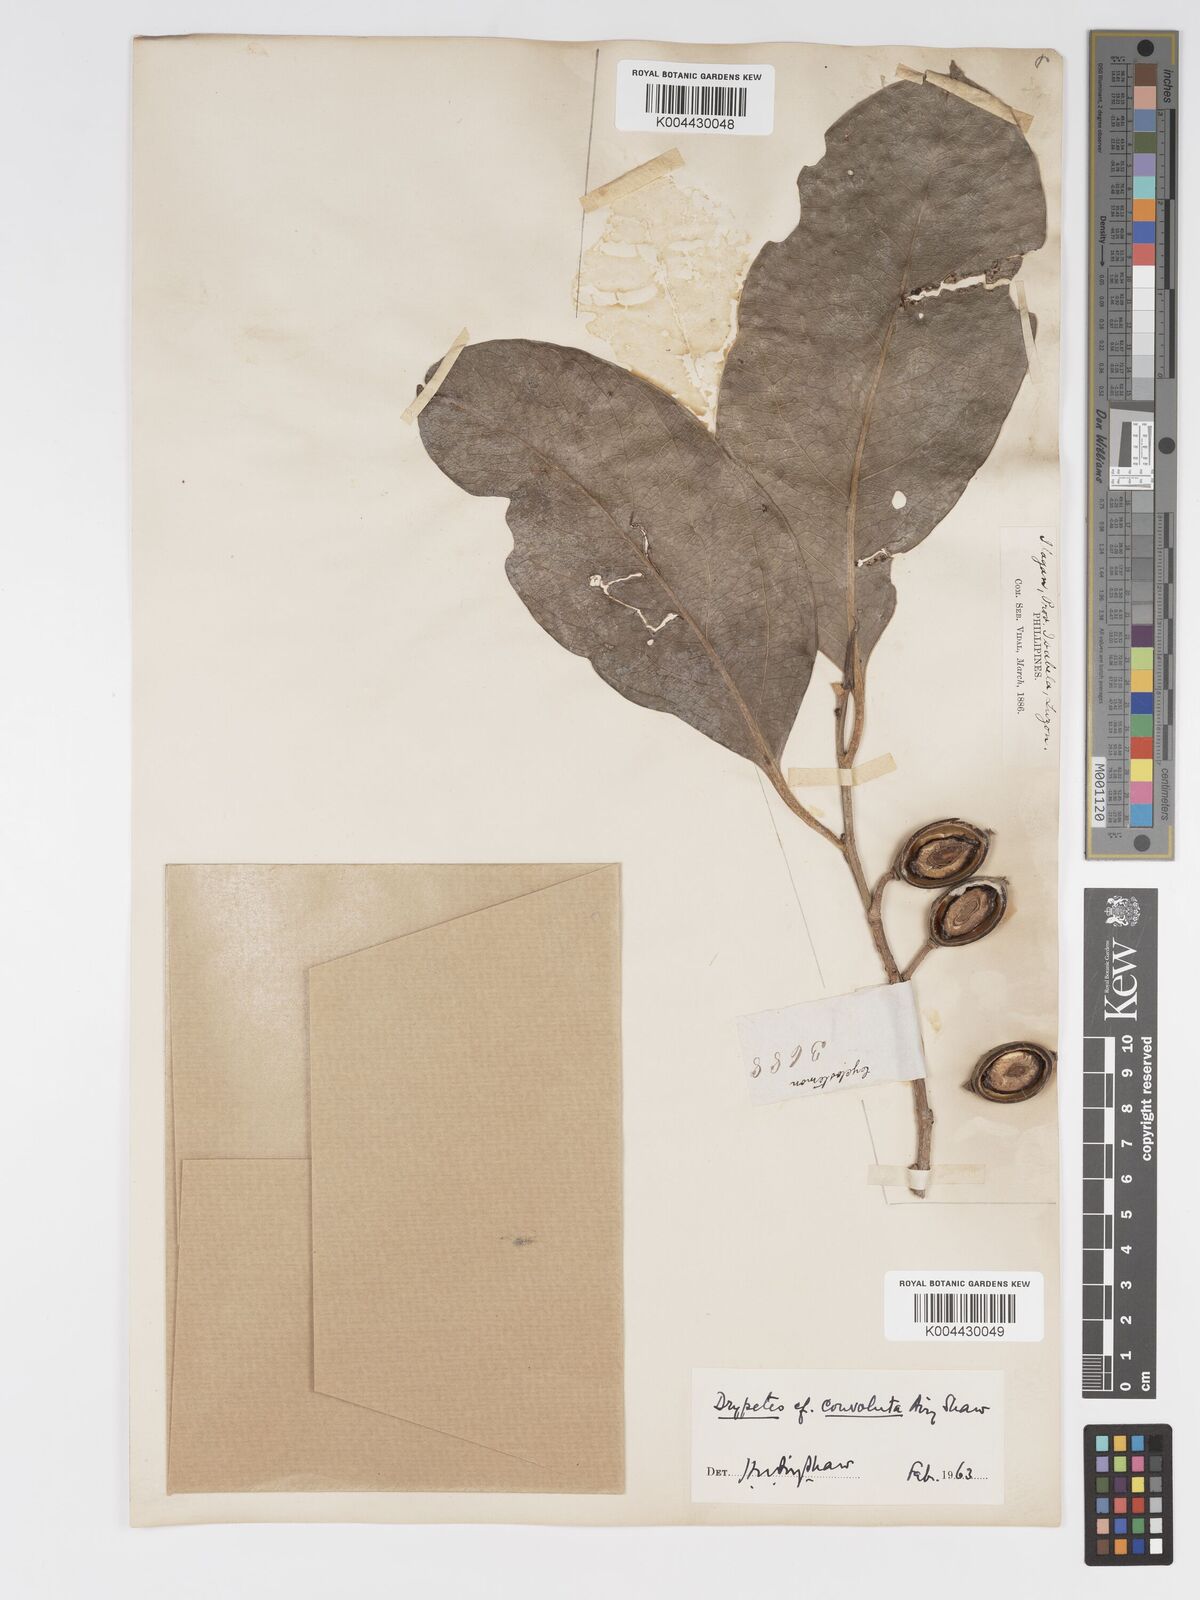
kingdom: Plantae
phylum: Tracheophyta
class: Magnoliopsida
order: Malpighiales
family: Putranjivaceae
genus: Drypetes
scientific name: Drypetes convoluta
